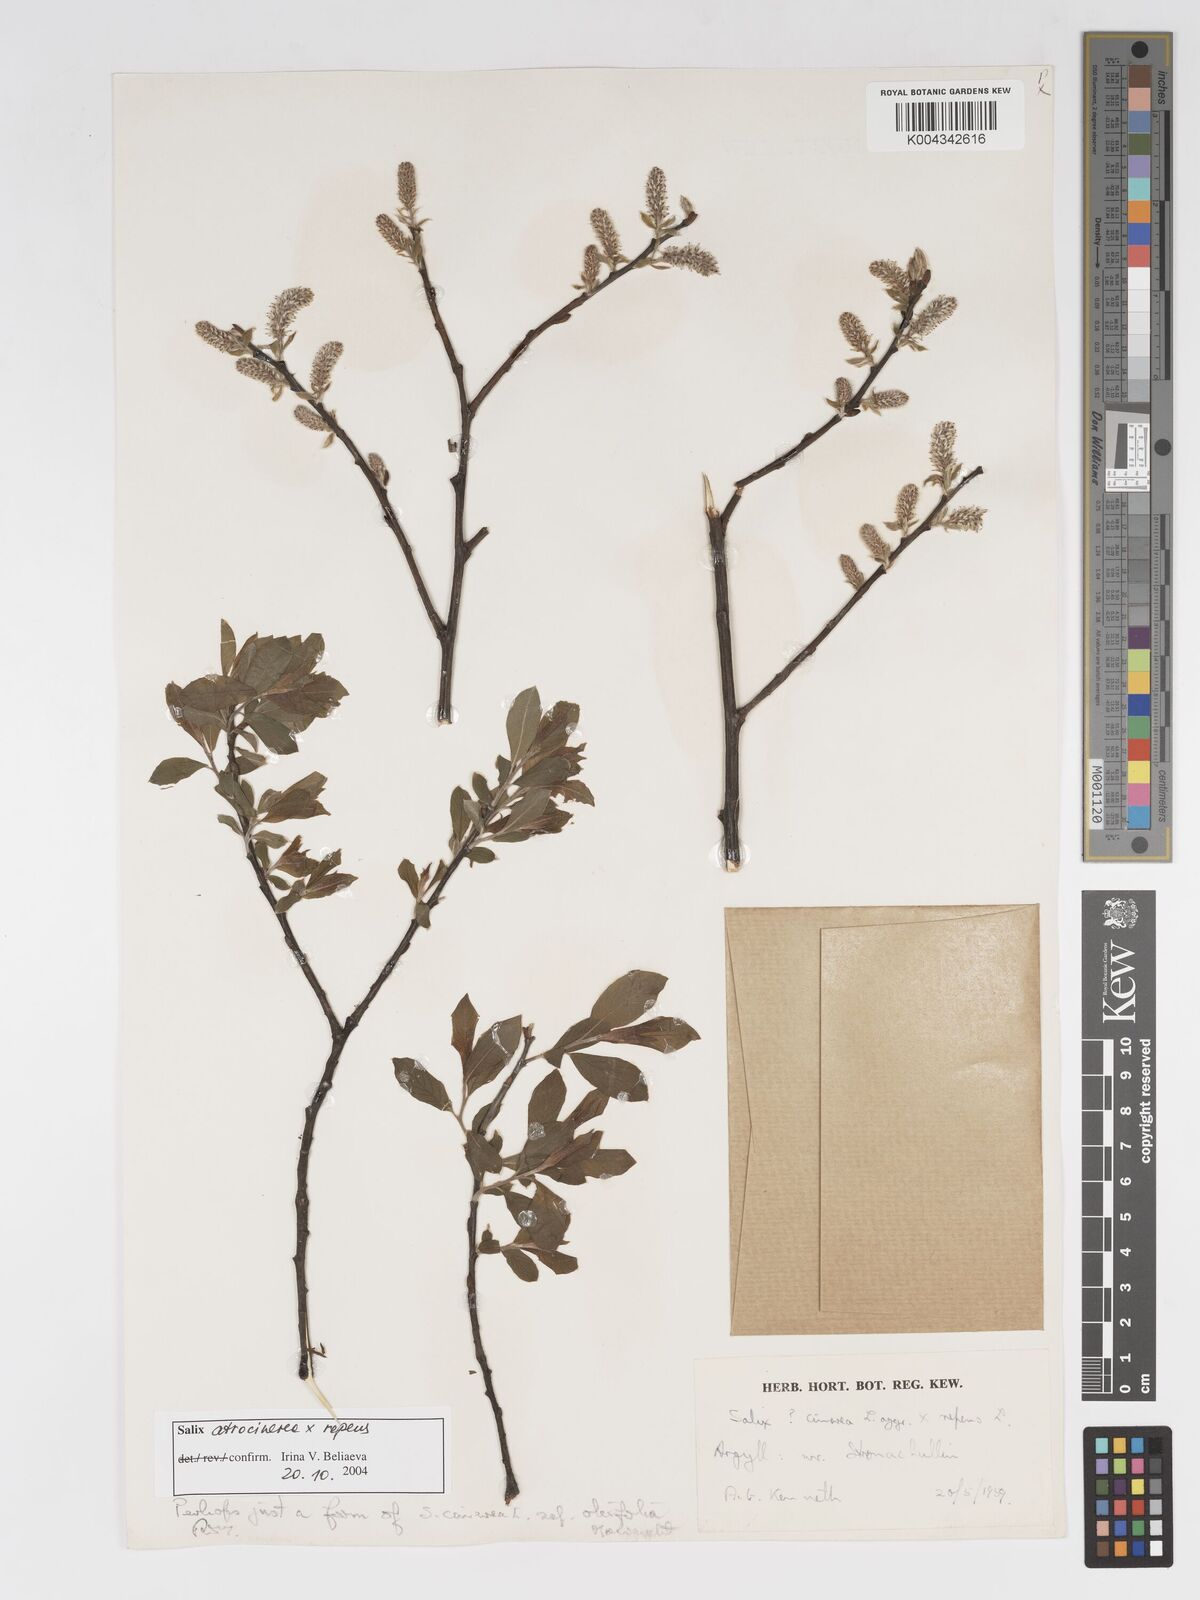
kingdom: Plantae
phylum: Tracheophyta
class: Magnoliopsida
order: Malpighiales
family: Salicaceae
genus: Salix
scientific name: Salix cinerea
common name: Common sallow
